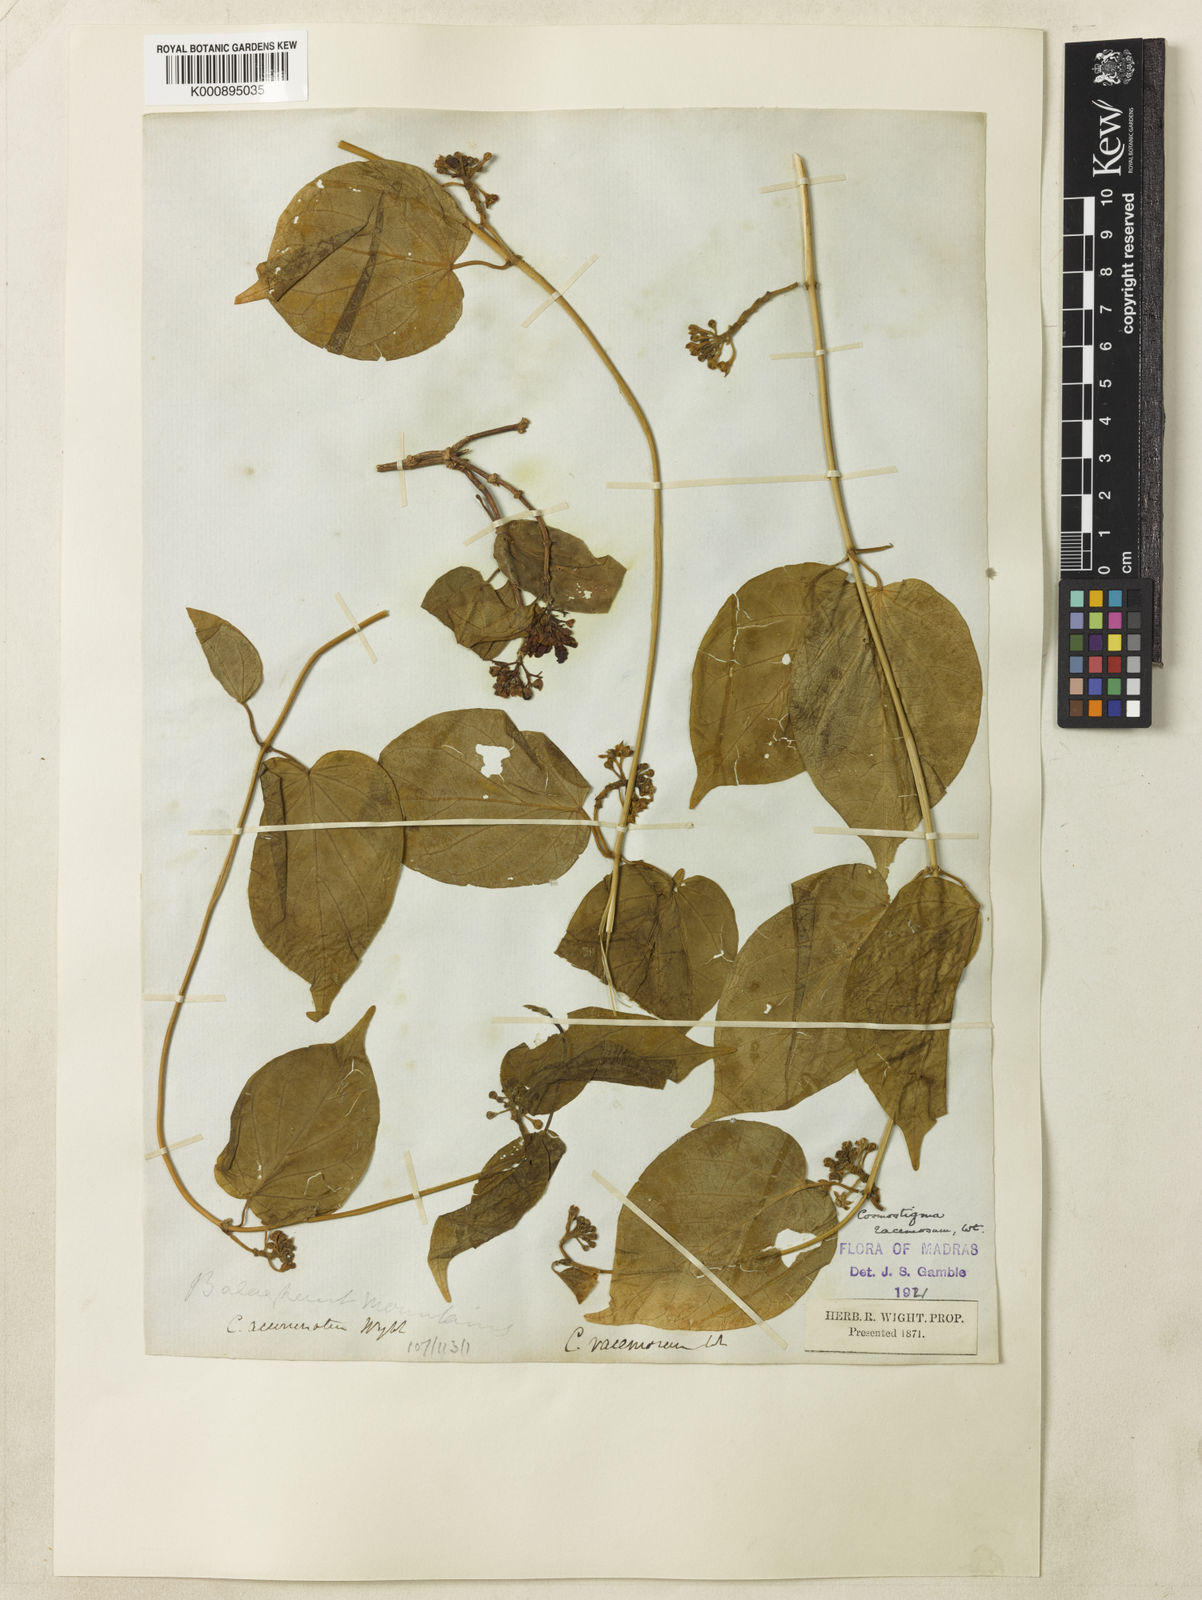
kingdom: Plantae
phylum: Tracheophyta
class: Magnoliopsida
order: Gentianales
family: Apocynaceae
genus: Cosmostigma
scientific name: Cosmostigma cordatum
